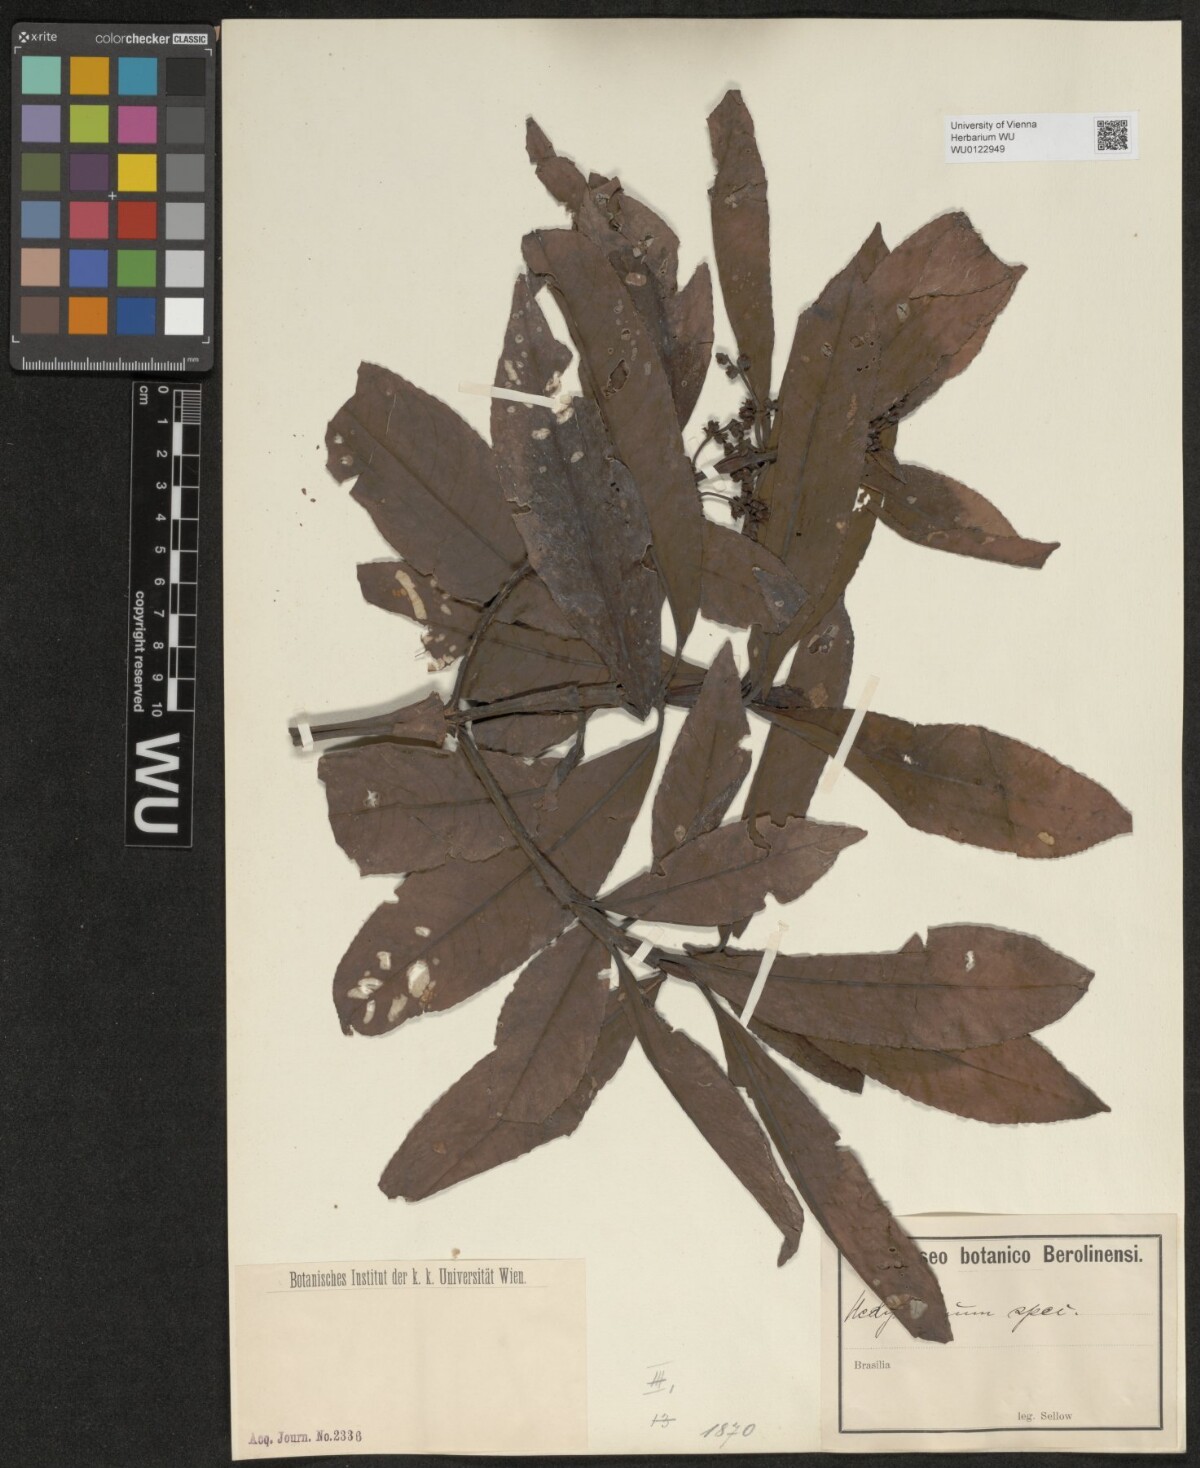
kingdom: Plantae
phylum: Tracheophyta
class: Magnoliopsida
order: Chloranthales
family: Chloranthaceae
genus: Hedyosmum
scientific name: Hedyosmum
